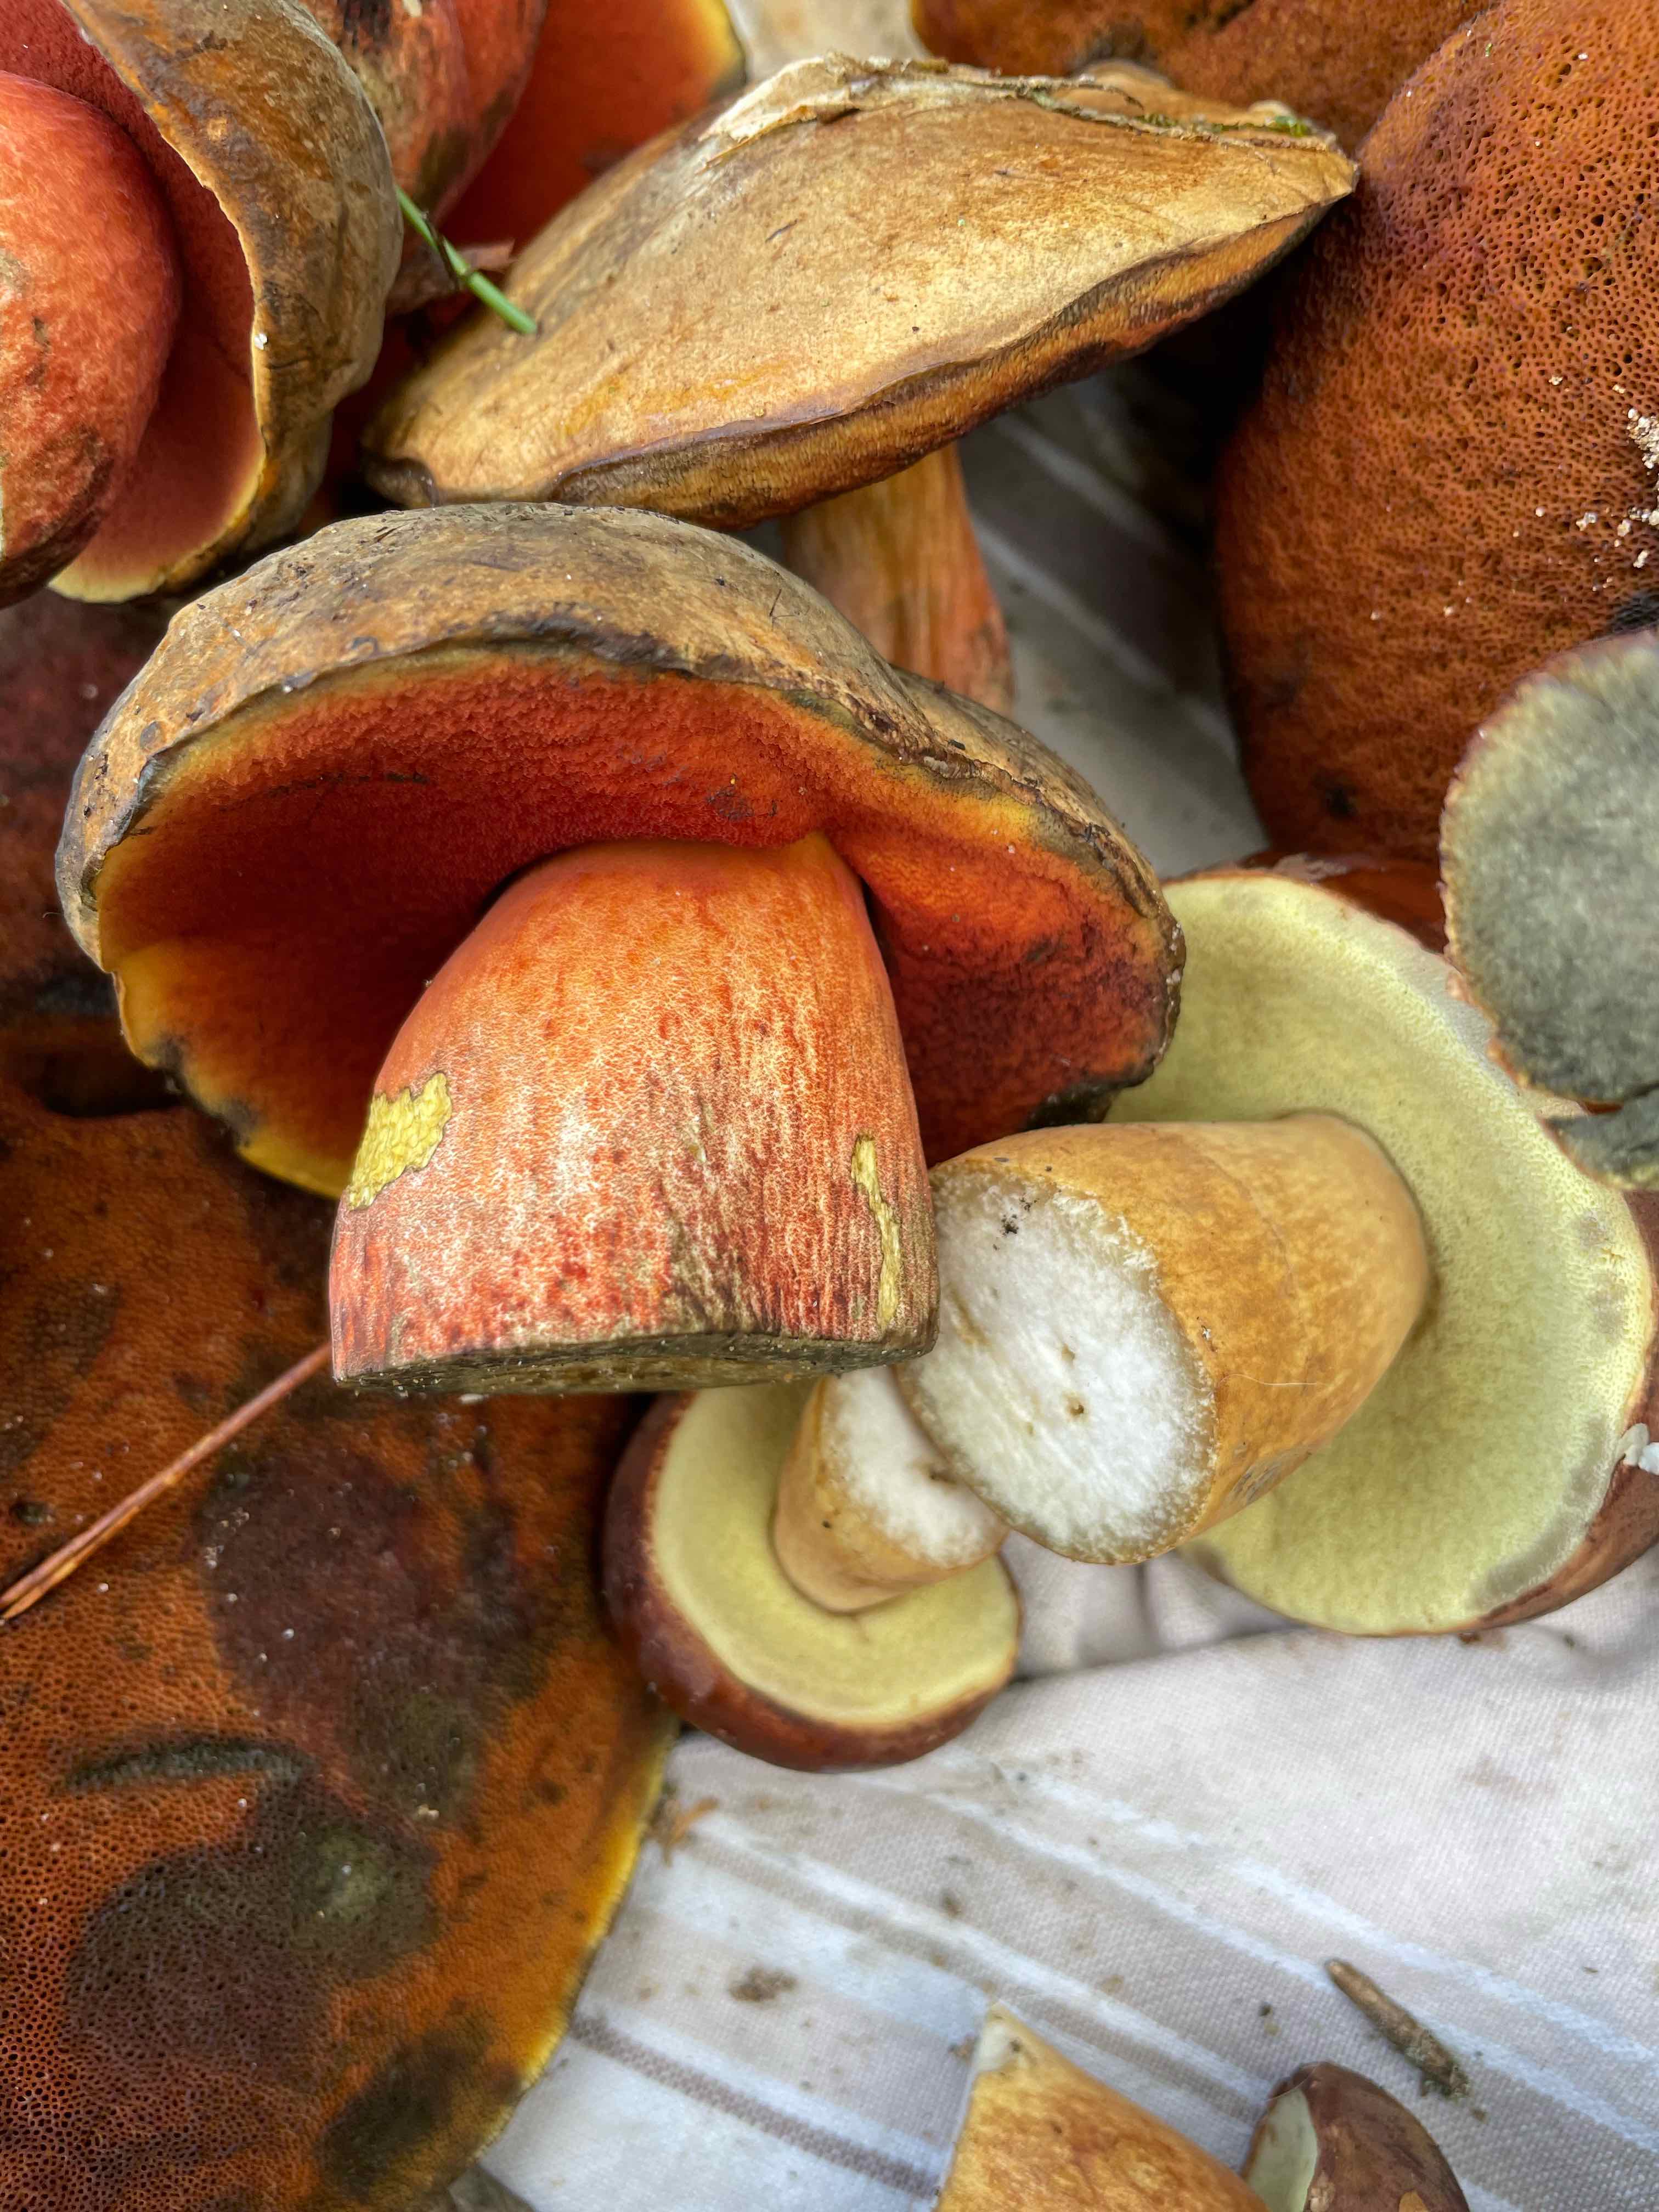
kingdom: Fungi
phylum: Basidiomycota
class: Agaricomycetes
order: Boletales
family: Boletaceae
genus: Neoboletus
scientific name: Neoboletus erythropus
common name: punktstokket indigorørhat
